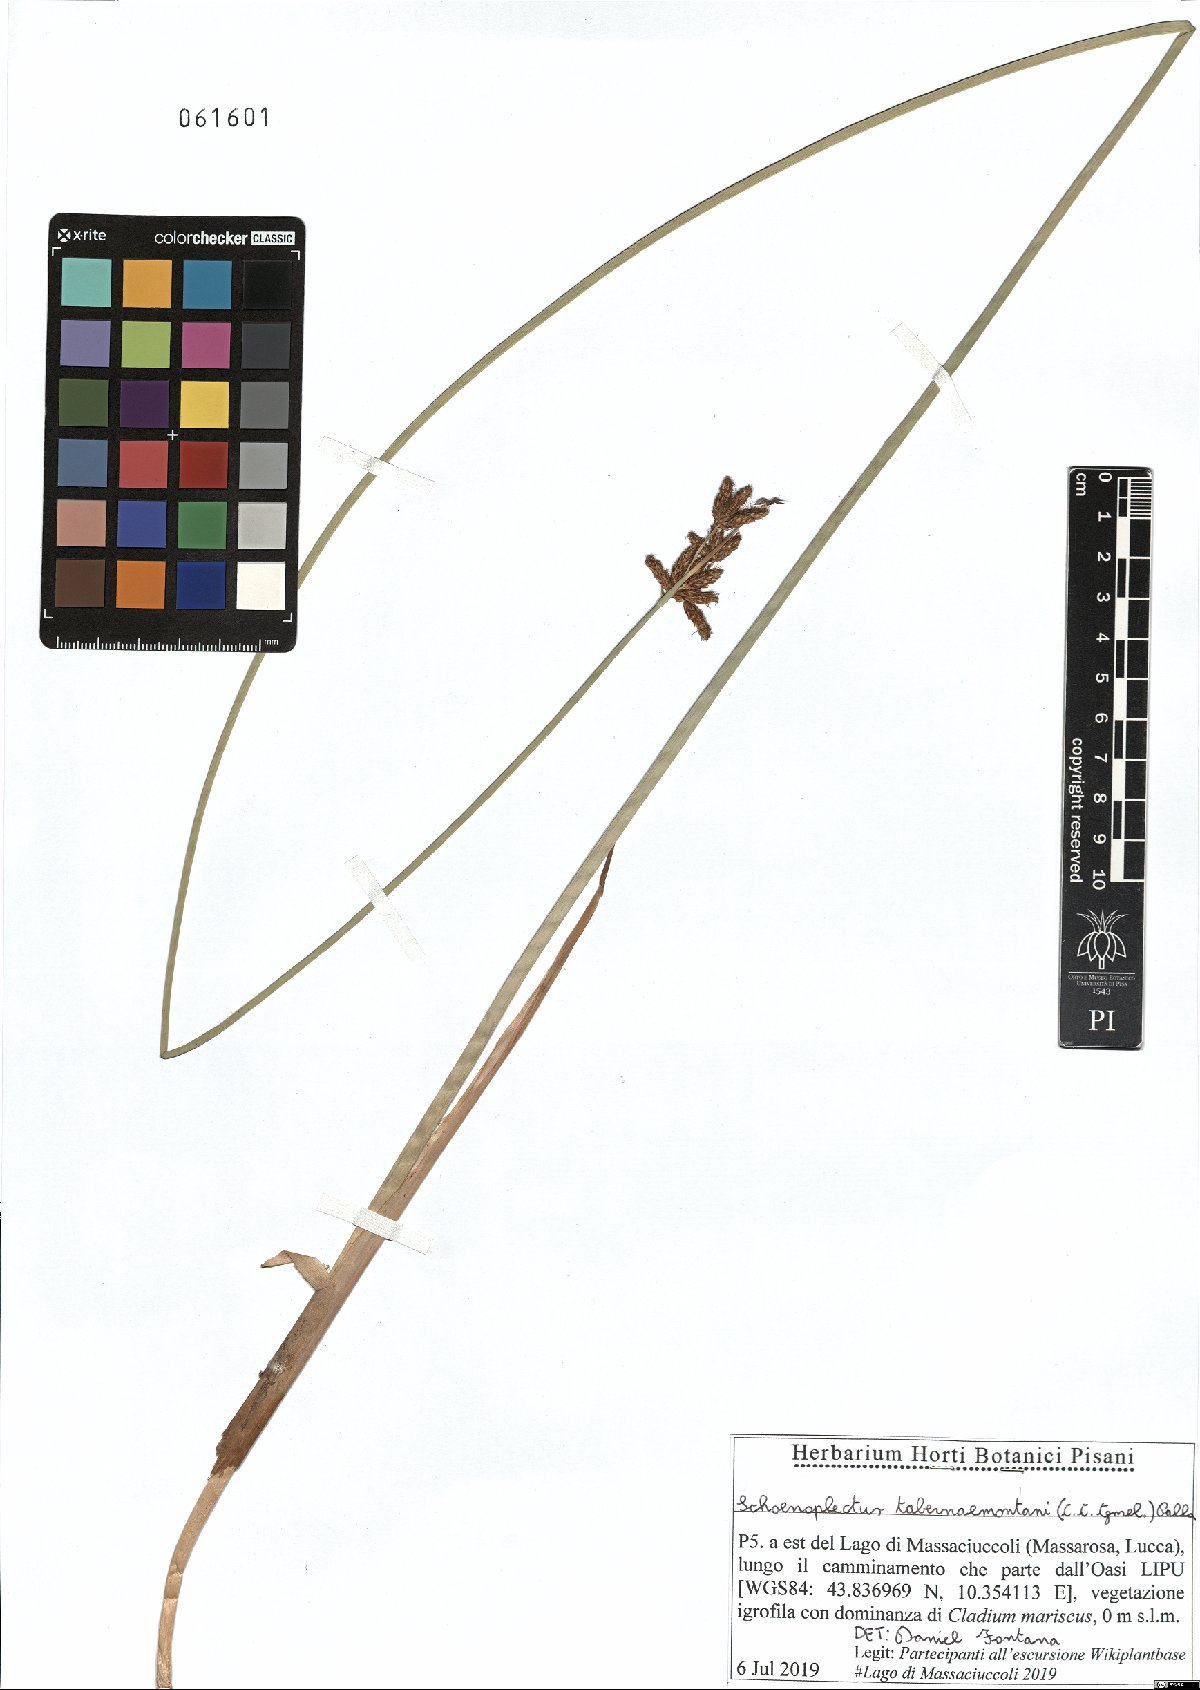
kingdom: Plantae
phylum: Tracheophyta
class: Liliopsida
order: Poales
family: Cyperaceae
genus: Schoenoplectus
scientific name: Schoenoplectus tabernaemontani
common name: Grey club-rush
